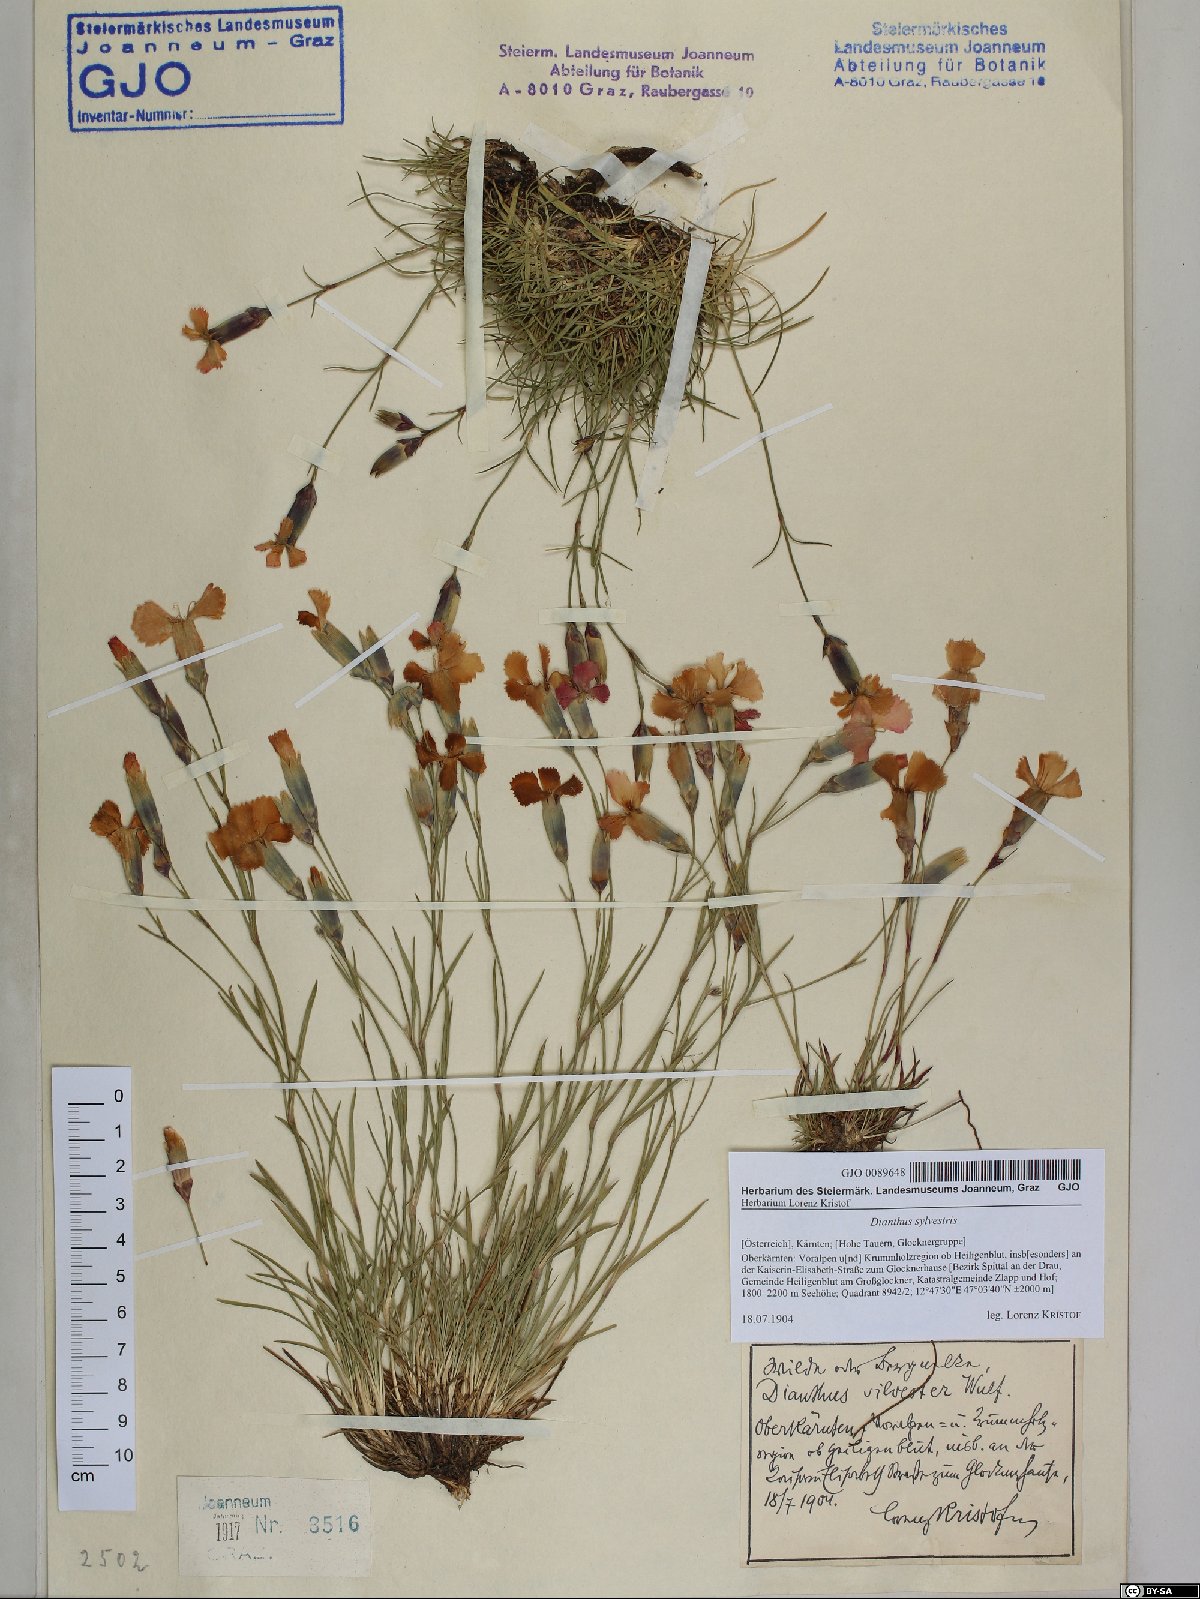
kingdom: Plantae
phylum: Tracheophyta
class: Magnoliopsida
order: Caryophyllales
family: Caryophyllaceae
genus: Dianthus
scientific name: Dianthus sylvestris
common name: Wood pink
